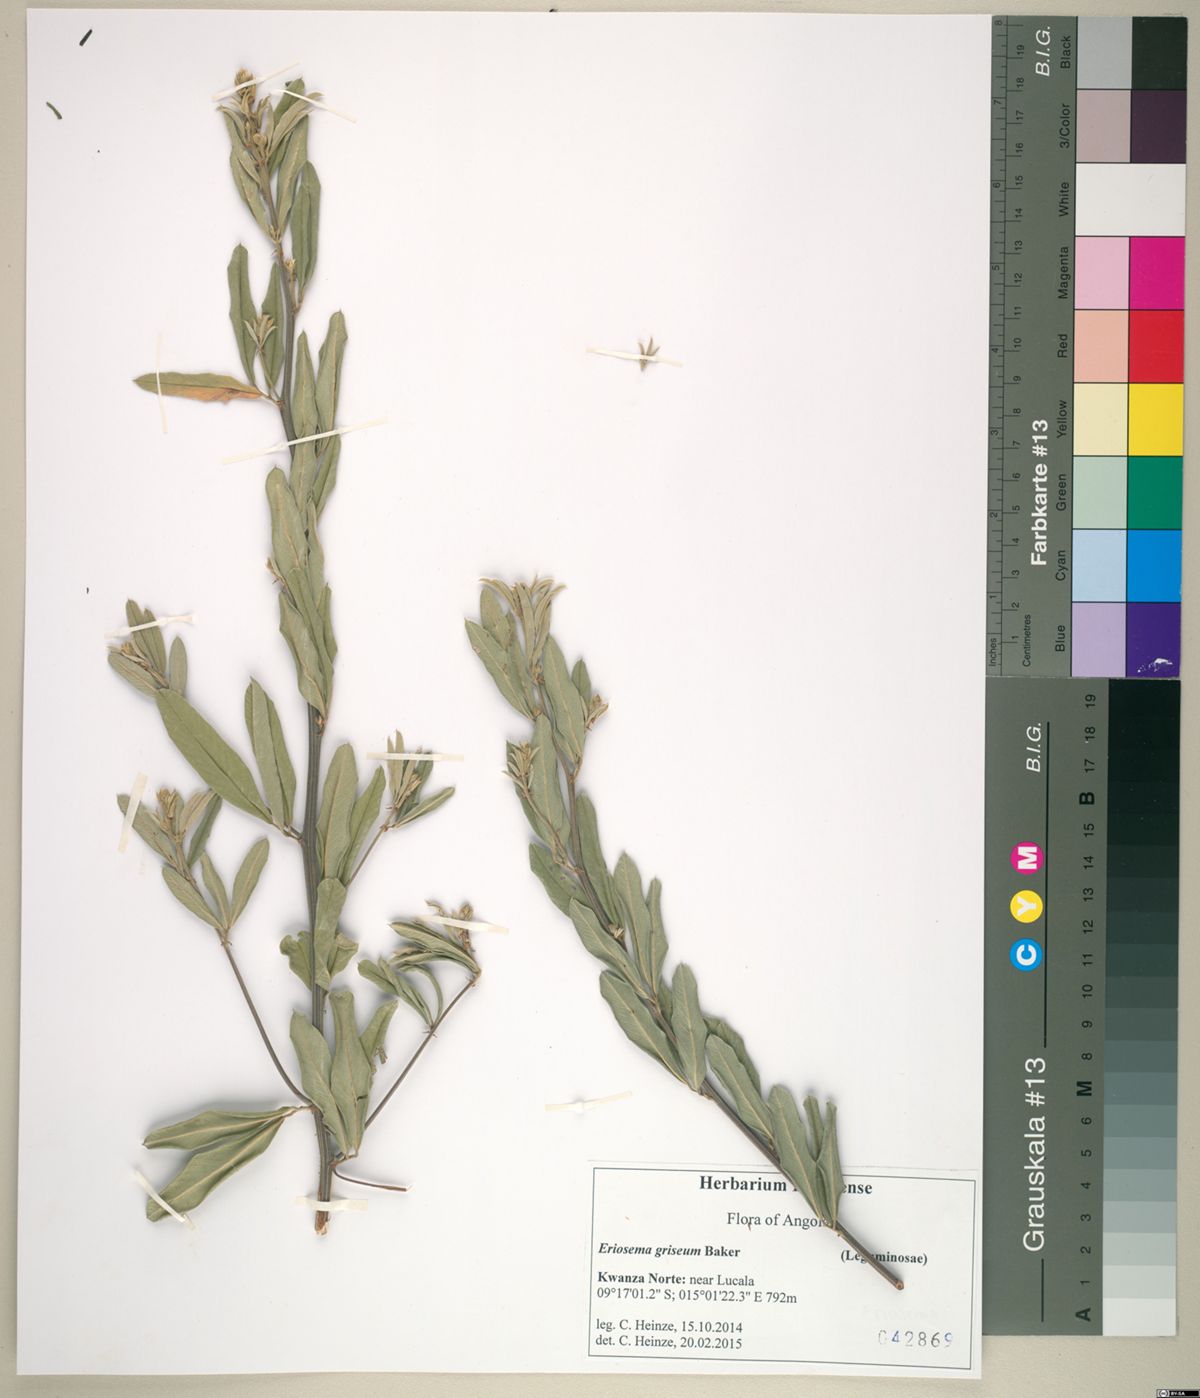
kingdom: Plantae
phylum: Tracheophyta
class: Magnoliopsida
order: Fabales
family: Fabaceae
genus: Eriosema
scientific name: Eriosema griseum
